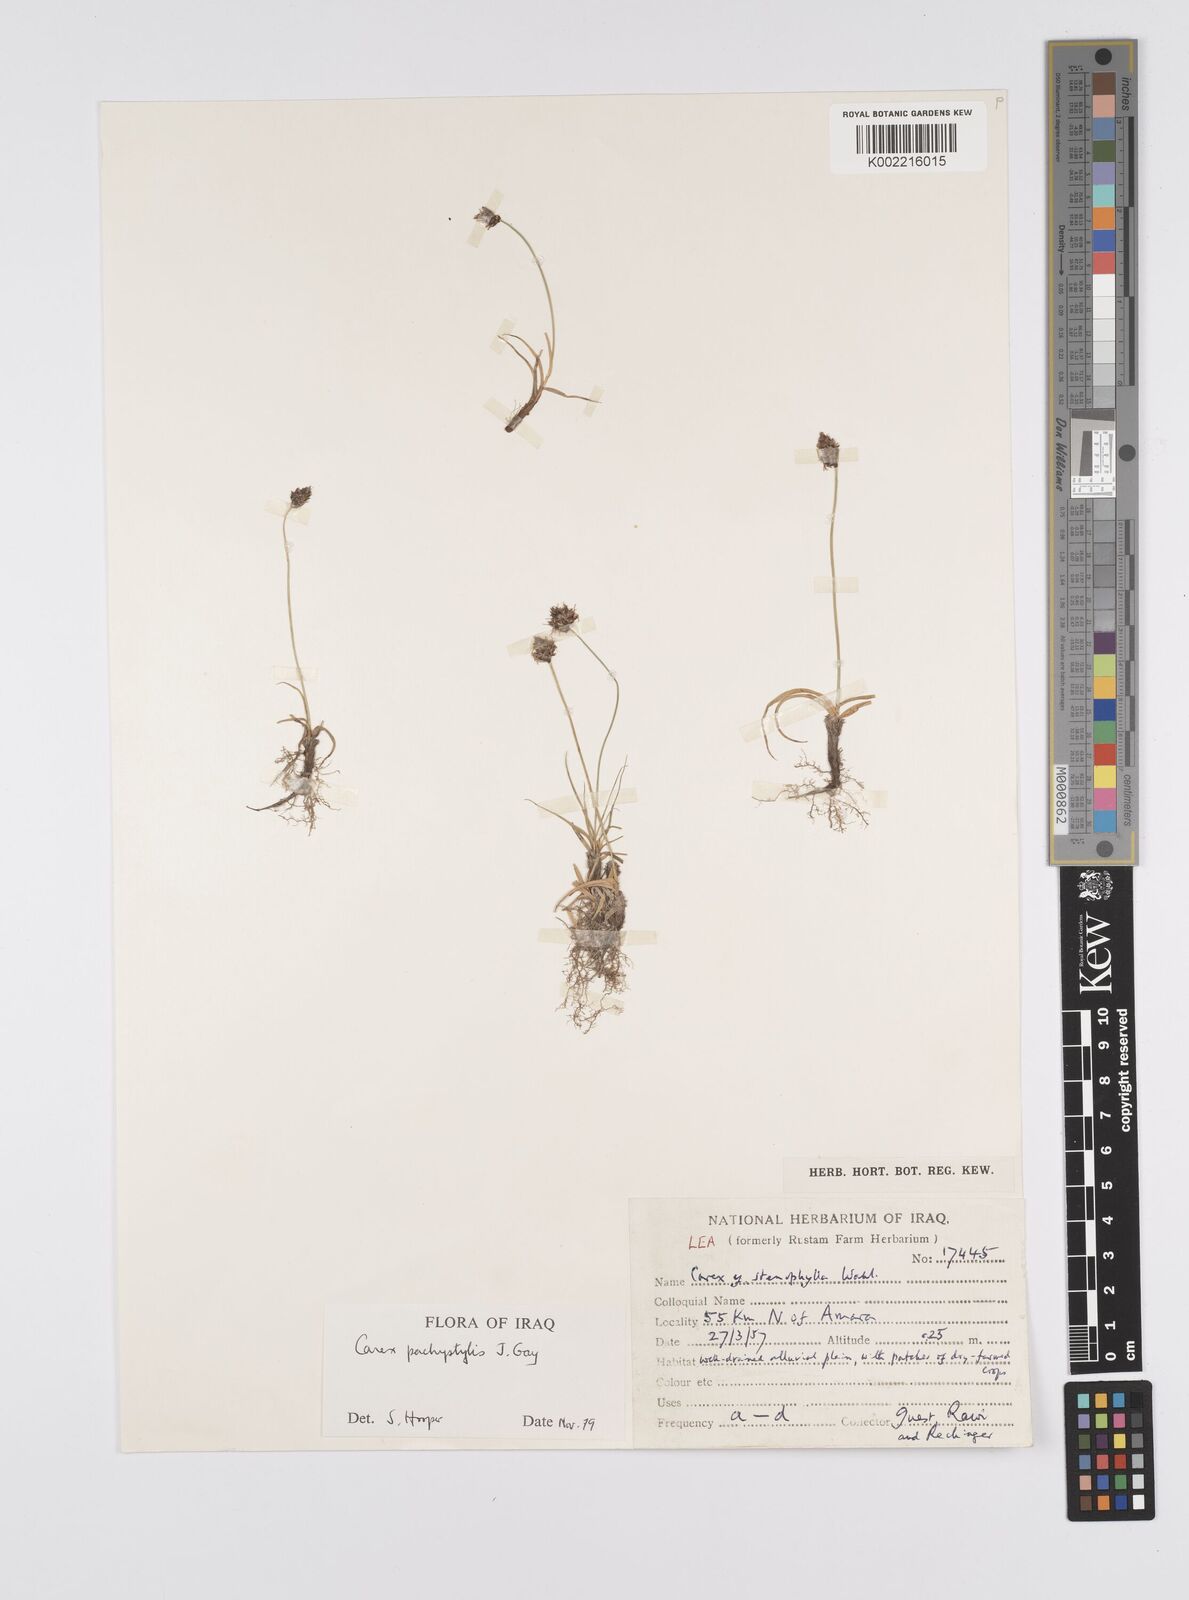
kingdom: Plantae
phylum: Tracheophyta
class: Liliopsida
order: Poales
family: Cyperaceae
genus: Carex
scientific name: Carex pachystylis
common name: Thick-stem sedge
